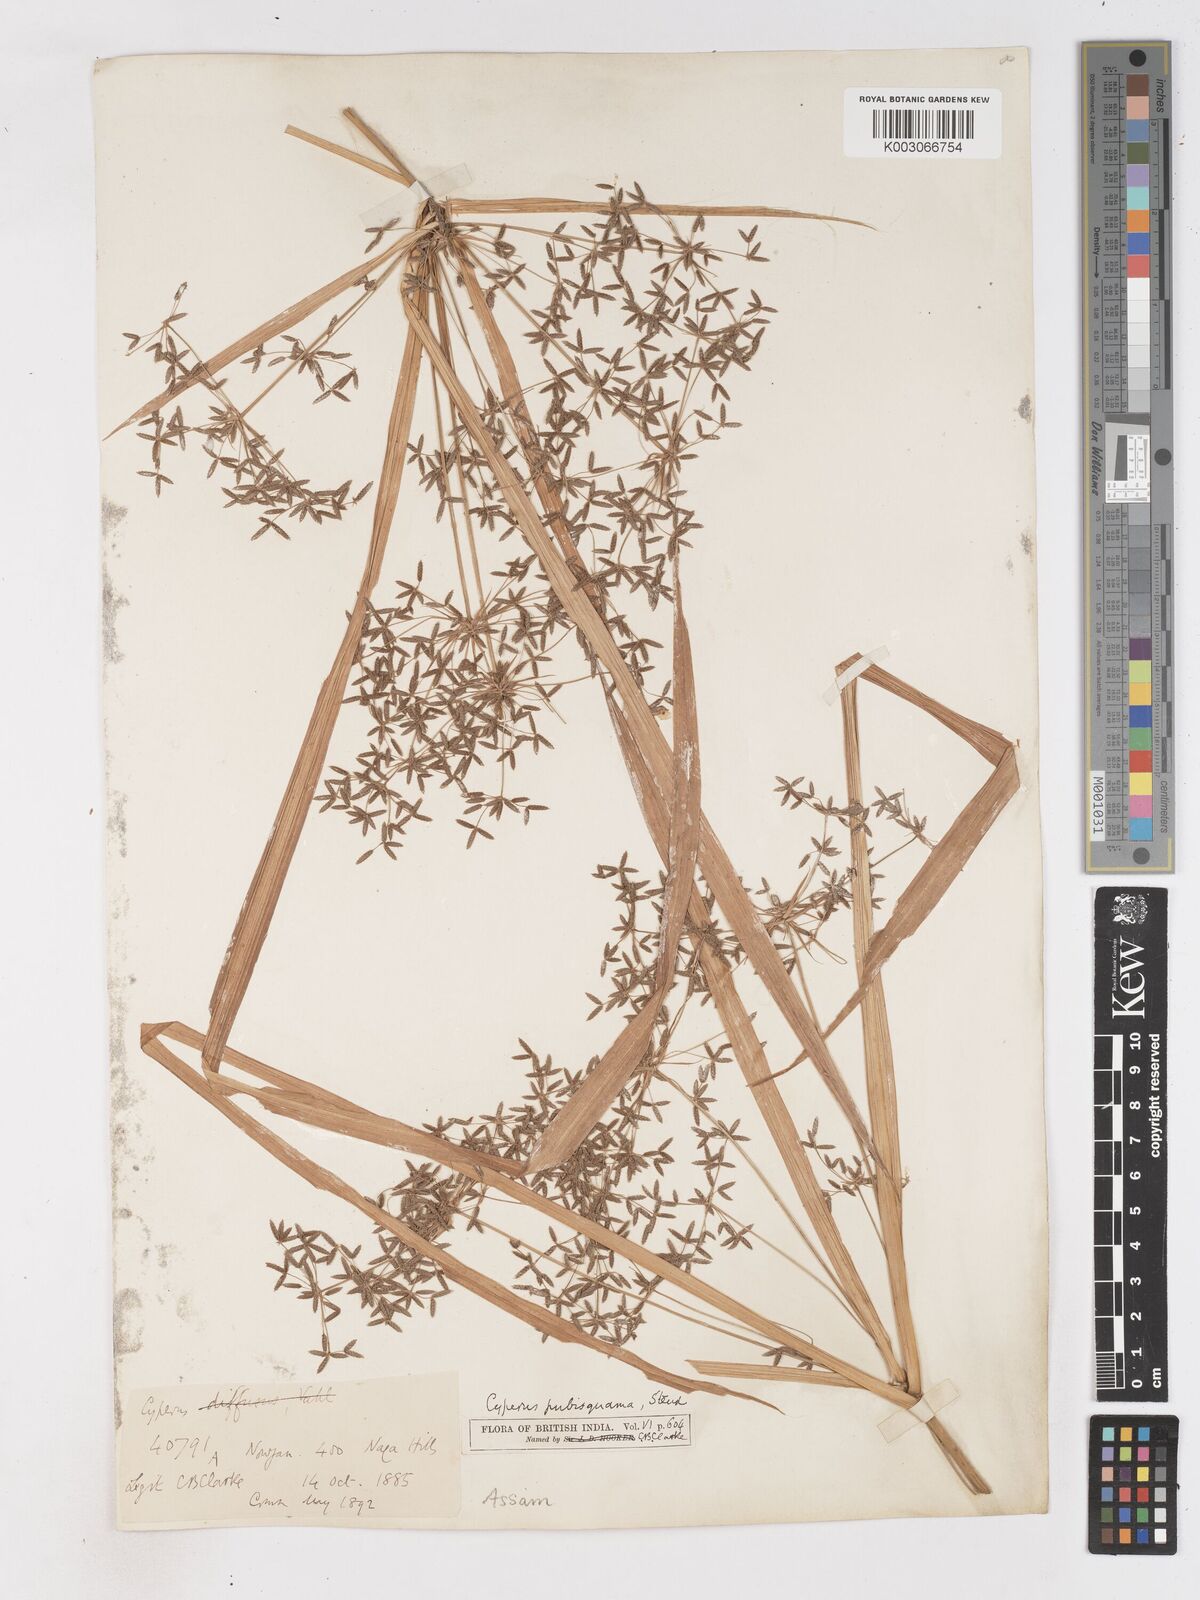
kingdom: Plantae
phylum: Tracheophyta
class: Liliopsida
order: Poales
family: Cyperaceae
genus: Cyperus
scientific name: Cyperus diffusus
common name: Dwarf umbrella grass
